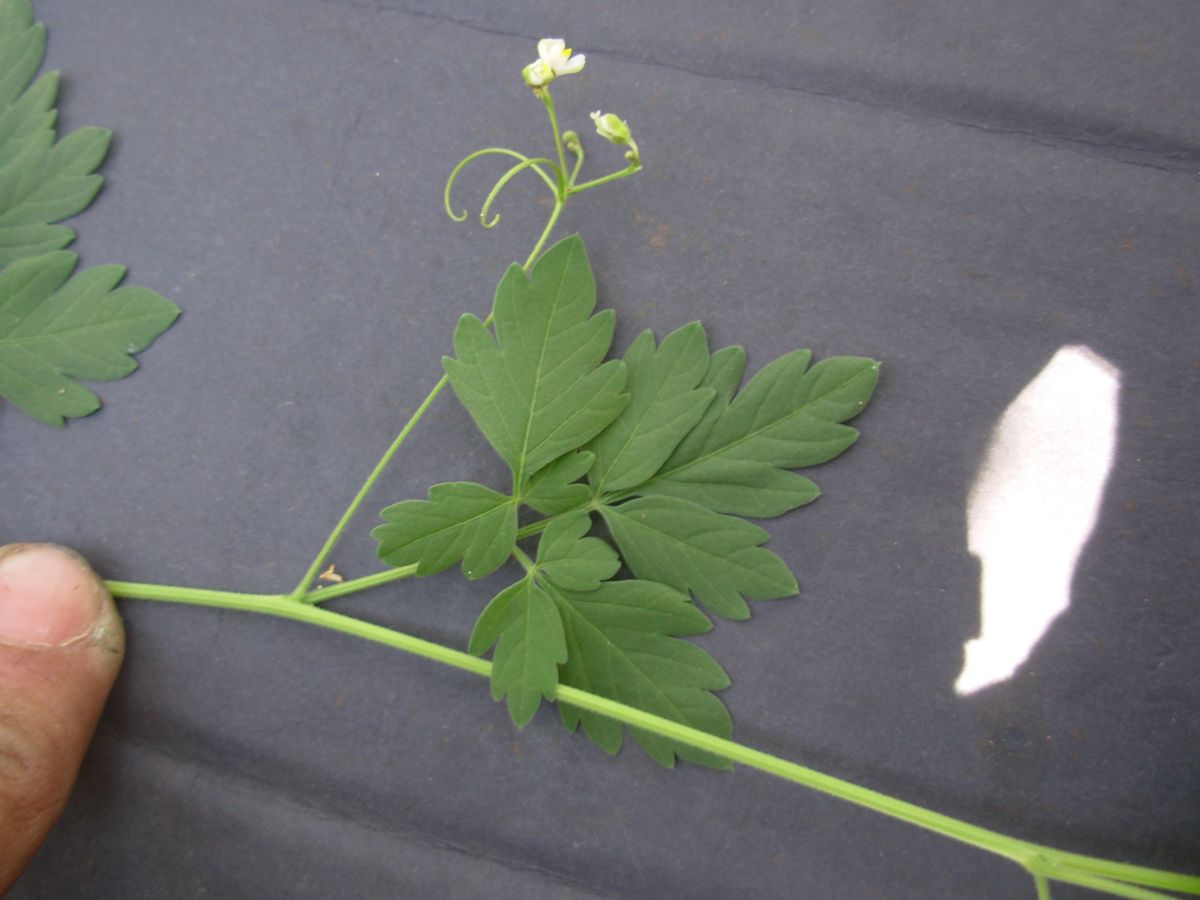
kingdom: Plantae
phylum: Tracheophyta
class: Magnoliopsida
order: Sapindales
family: Sapindaceae
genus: Cardiospermum
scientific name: Cardiospermum halicacabum
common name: Balloon vine
